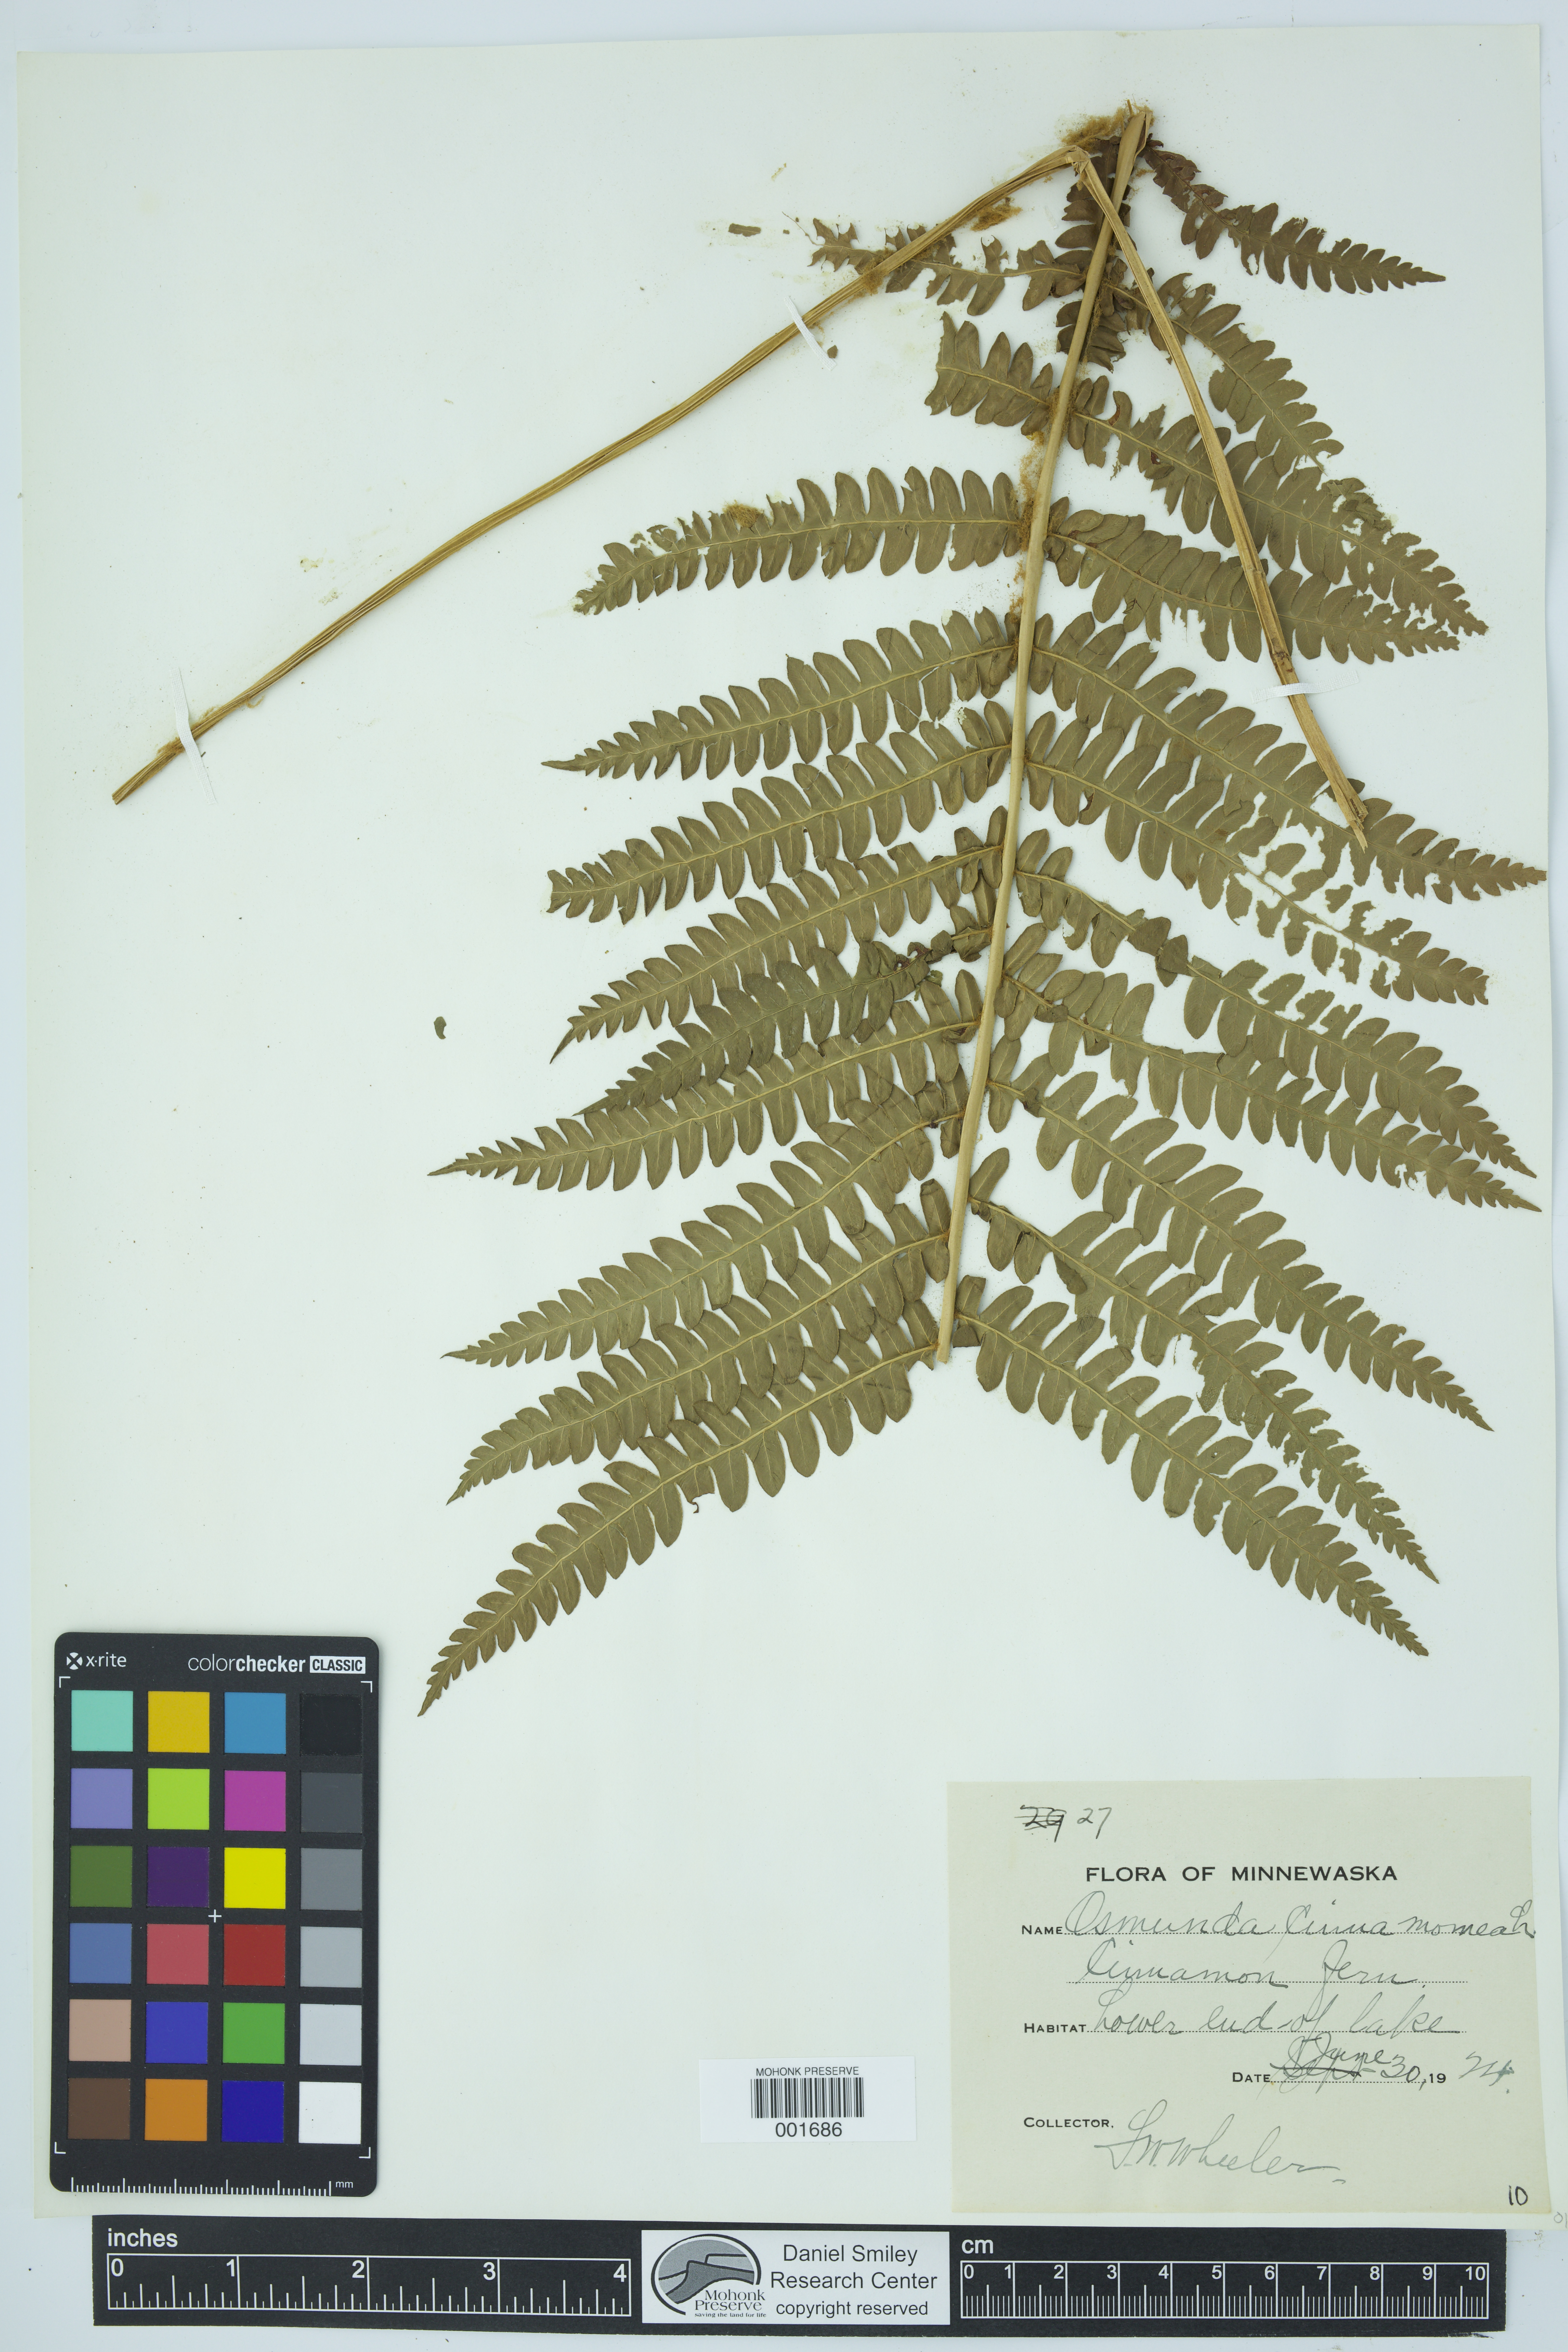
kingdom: Plantae
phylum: Tracheophyta
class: Polypodiopsida
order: Osmundales
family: Osmundaceae
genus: Osmundastrum
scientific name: Osmundastrum cinnamomeum
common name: Cinnamon fern
